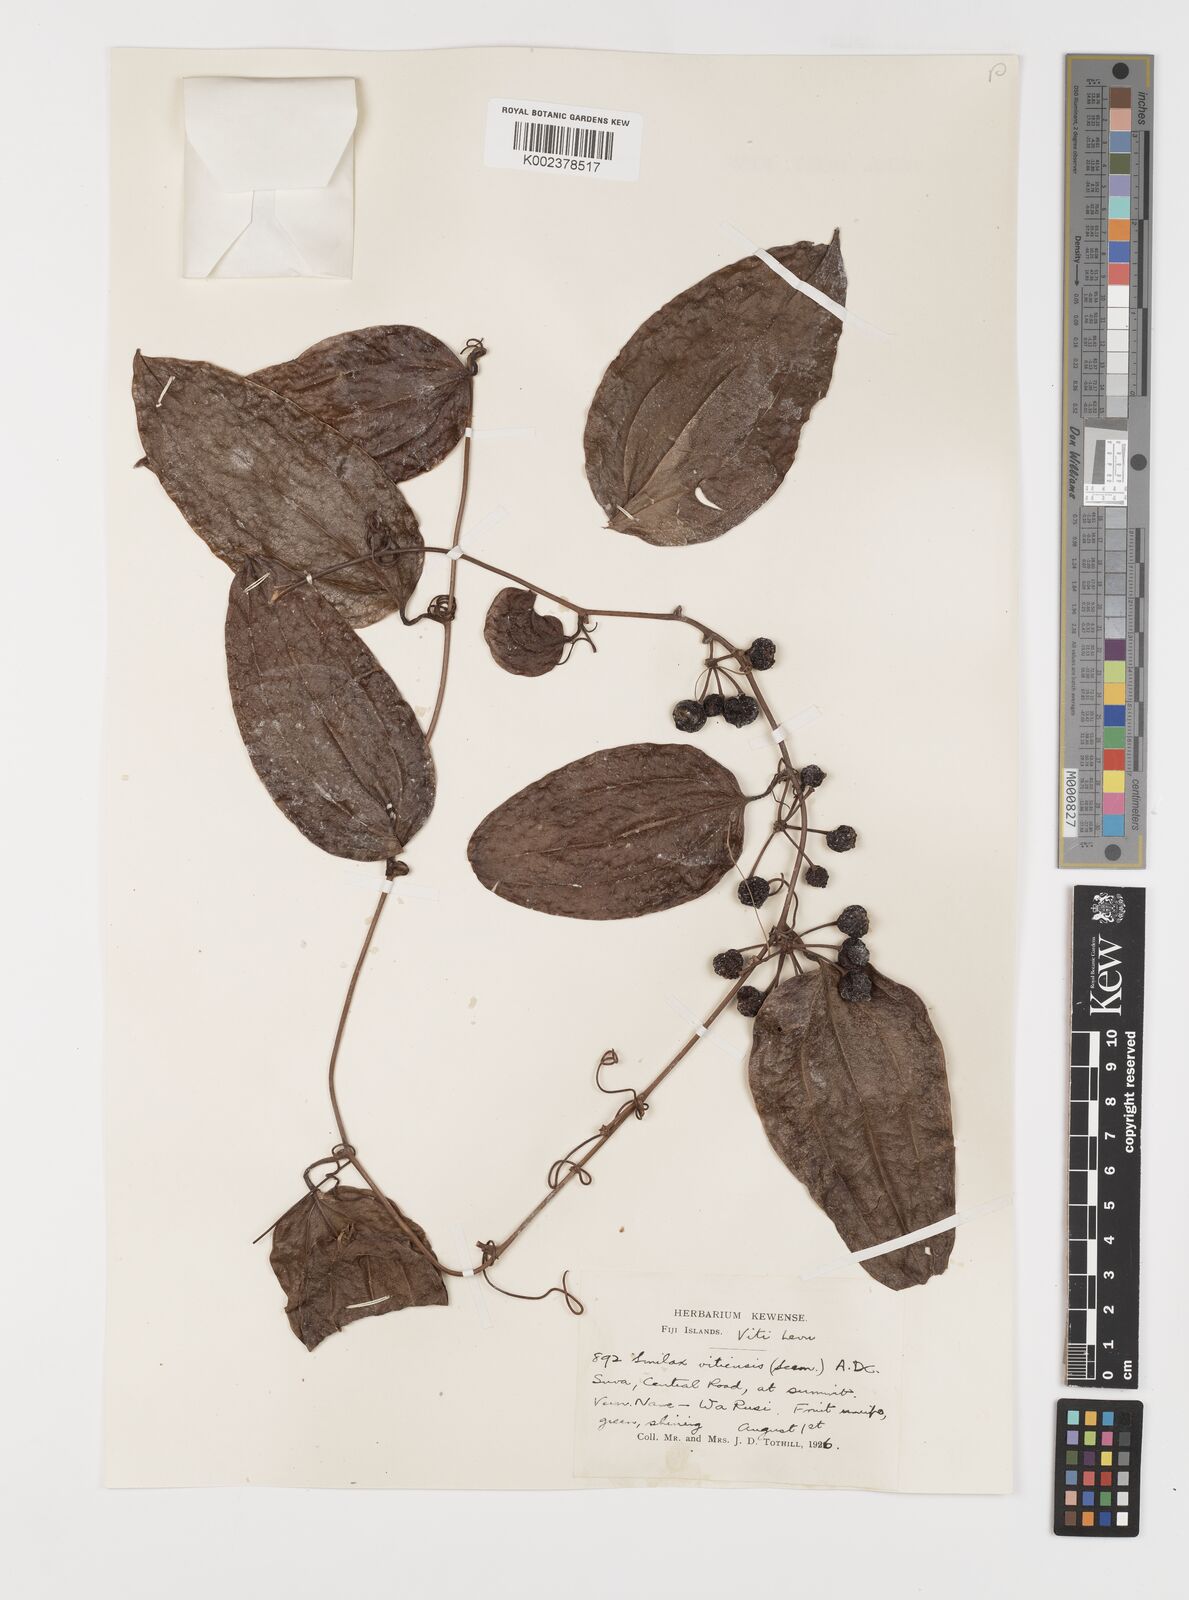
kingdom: Plantae
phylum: Tracheophyta
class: Liliopsida
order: Liliales
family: Smilacaceae
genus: Smilax
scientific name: Smilax vitiensis
